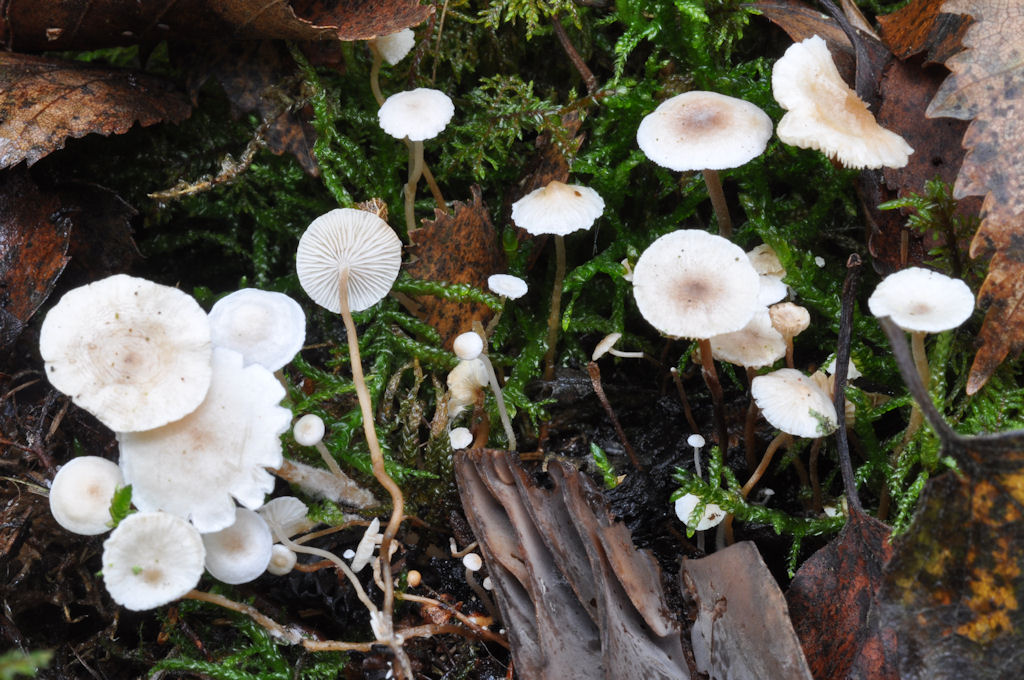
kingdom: Fungi
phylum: Basidiomycota
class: Agaricomycetes
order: Agaricales
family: Tricholomataceae
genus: Collybia
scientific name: Collybia cookei
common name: gulknoldet lighat
